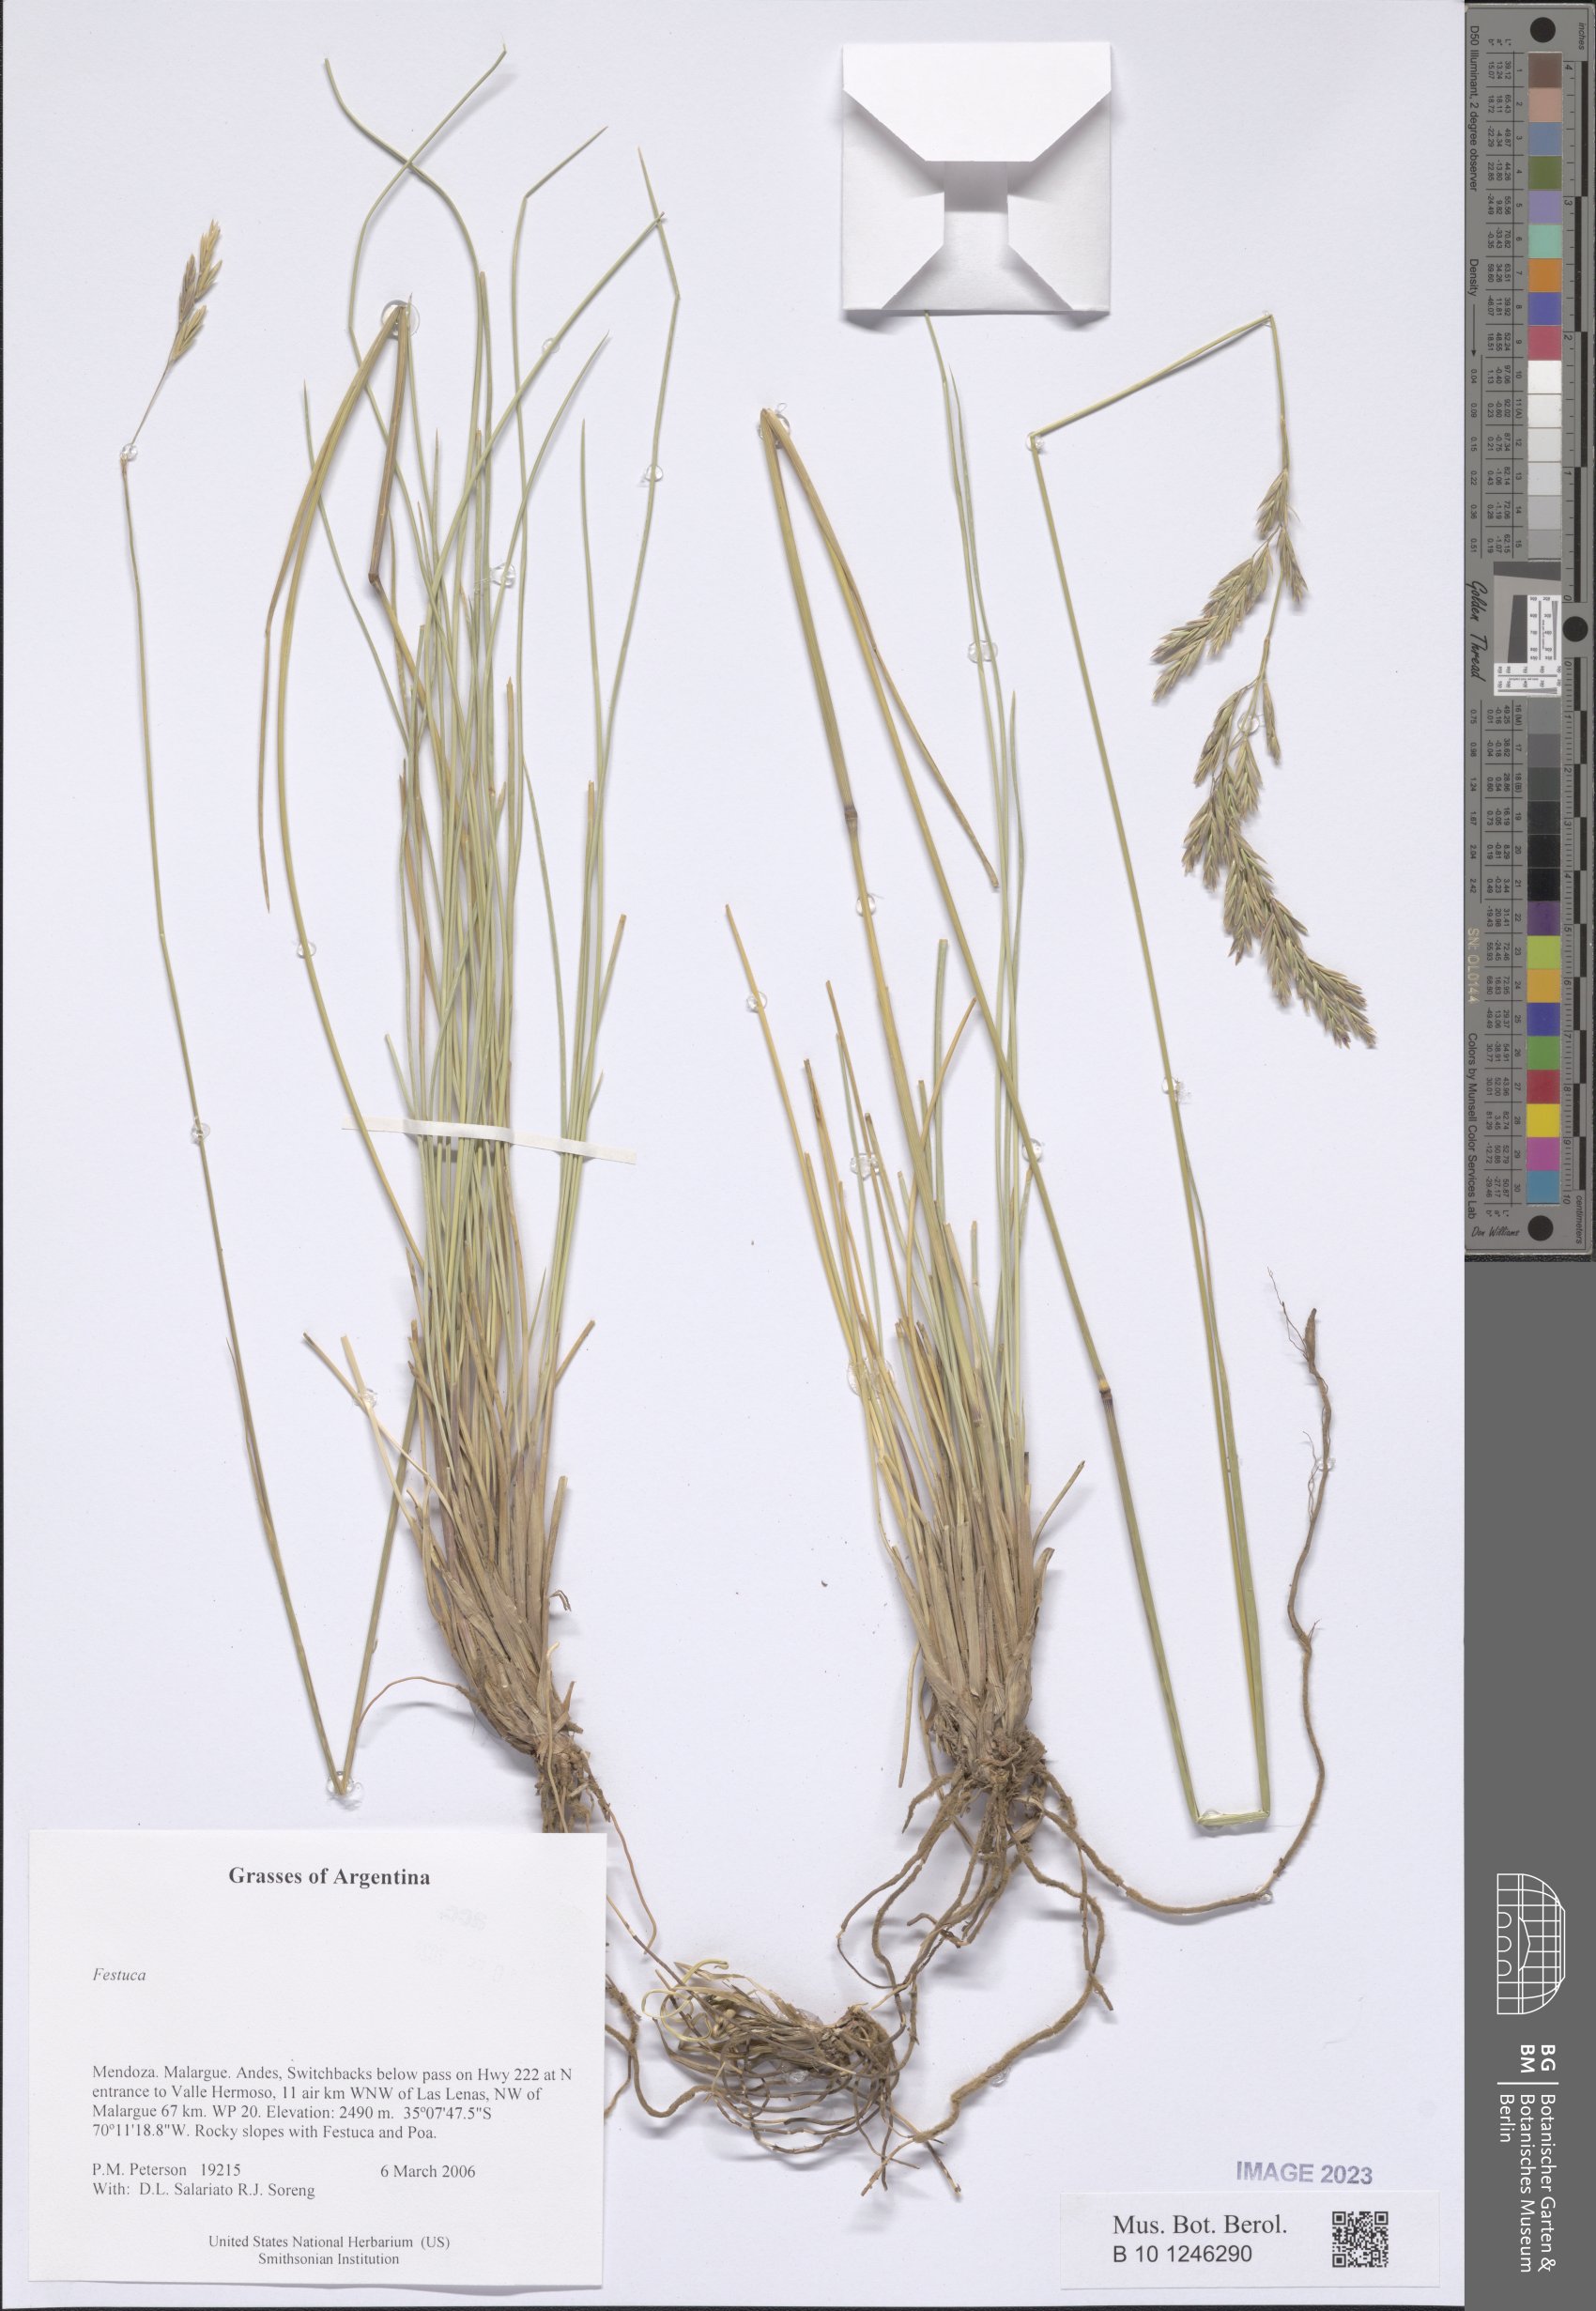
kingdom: Plantae
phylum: Tracheophyta
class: Liliopsida
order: Poales
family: Poaceae
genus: Festuca
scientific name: Festuca
